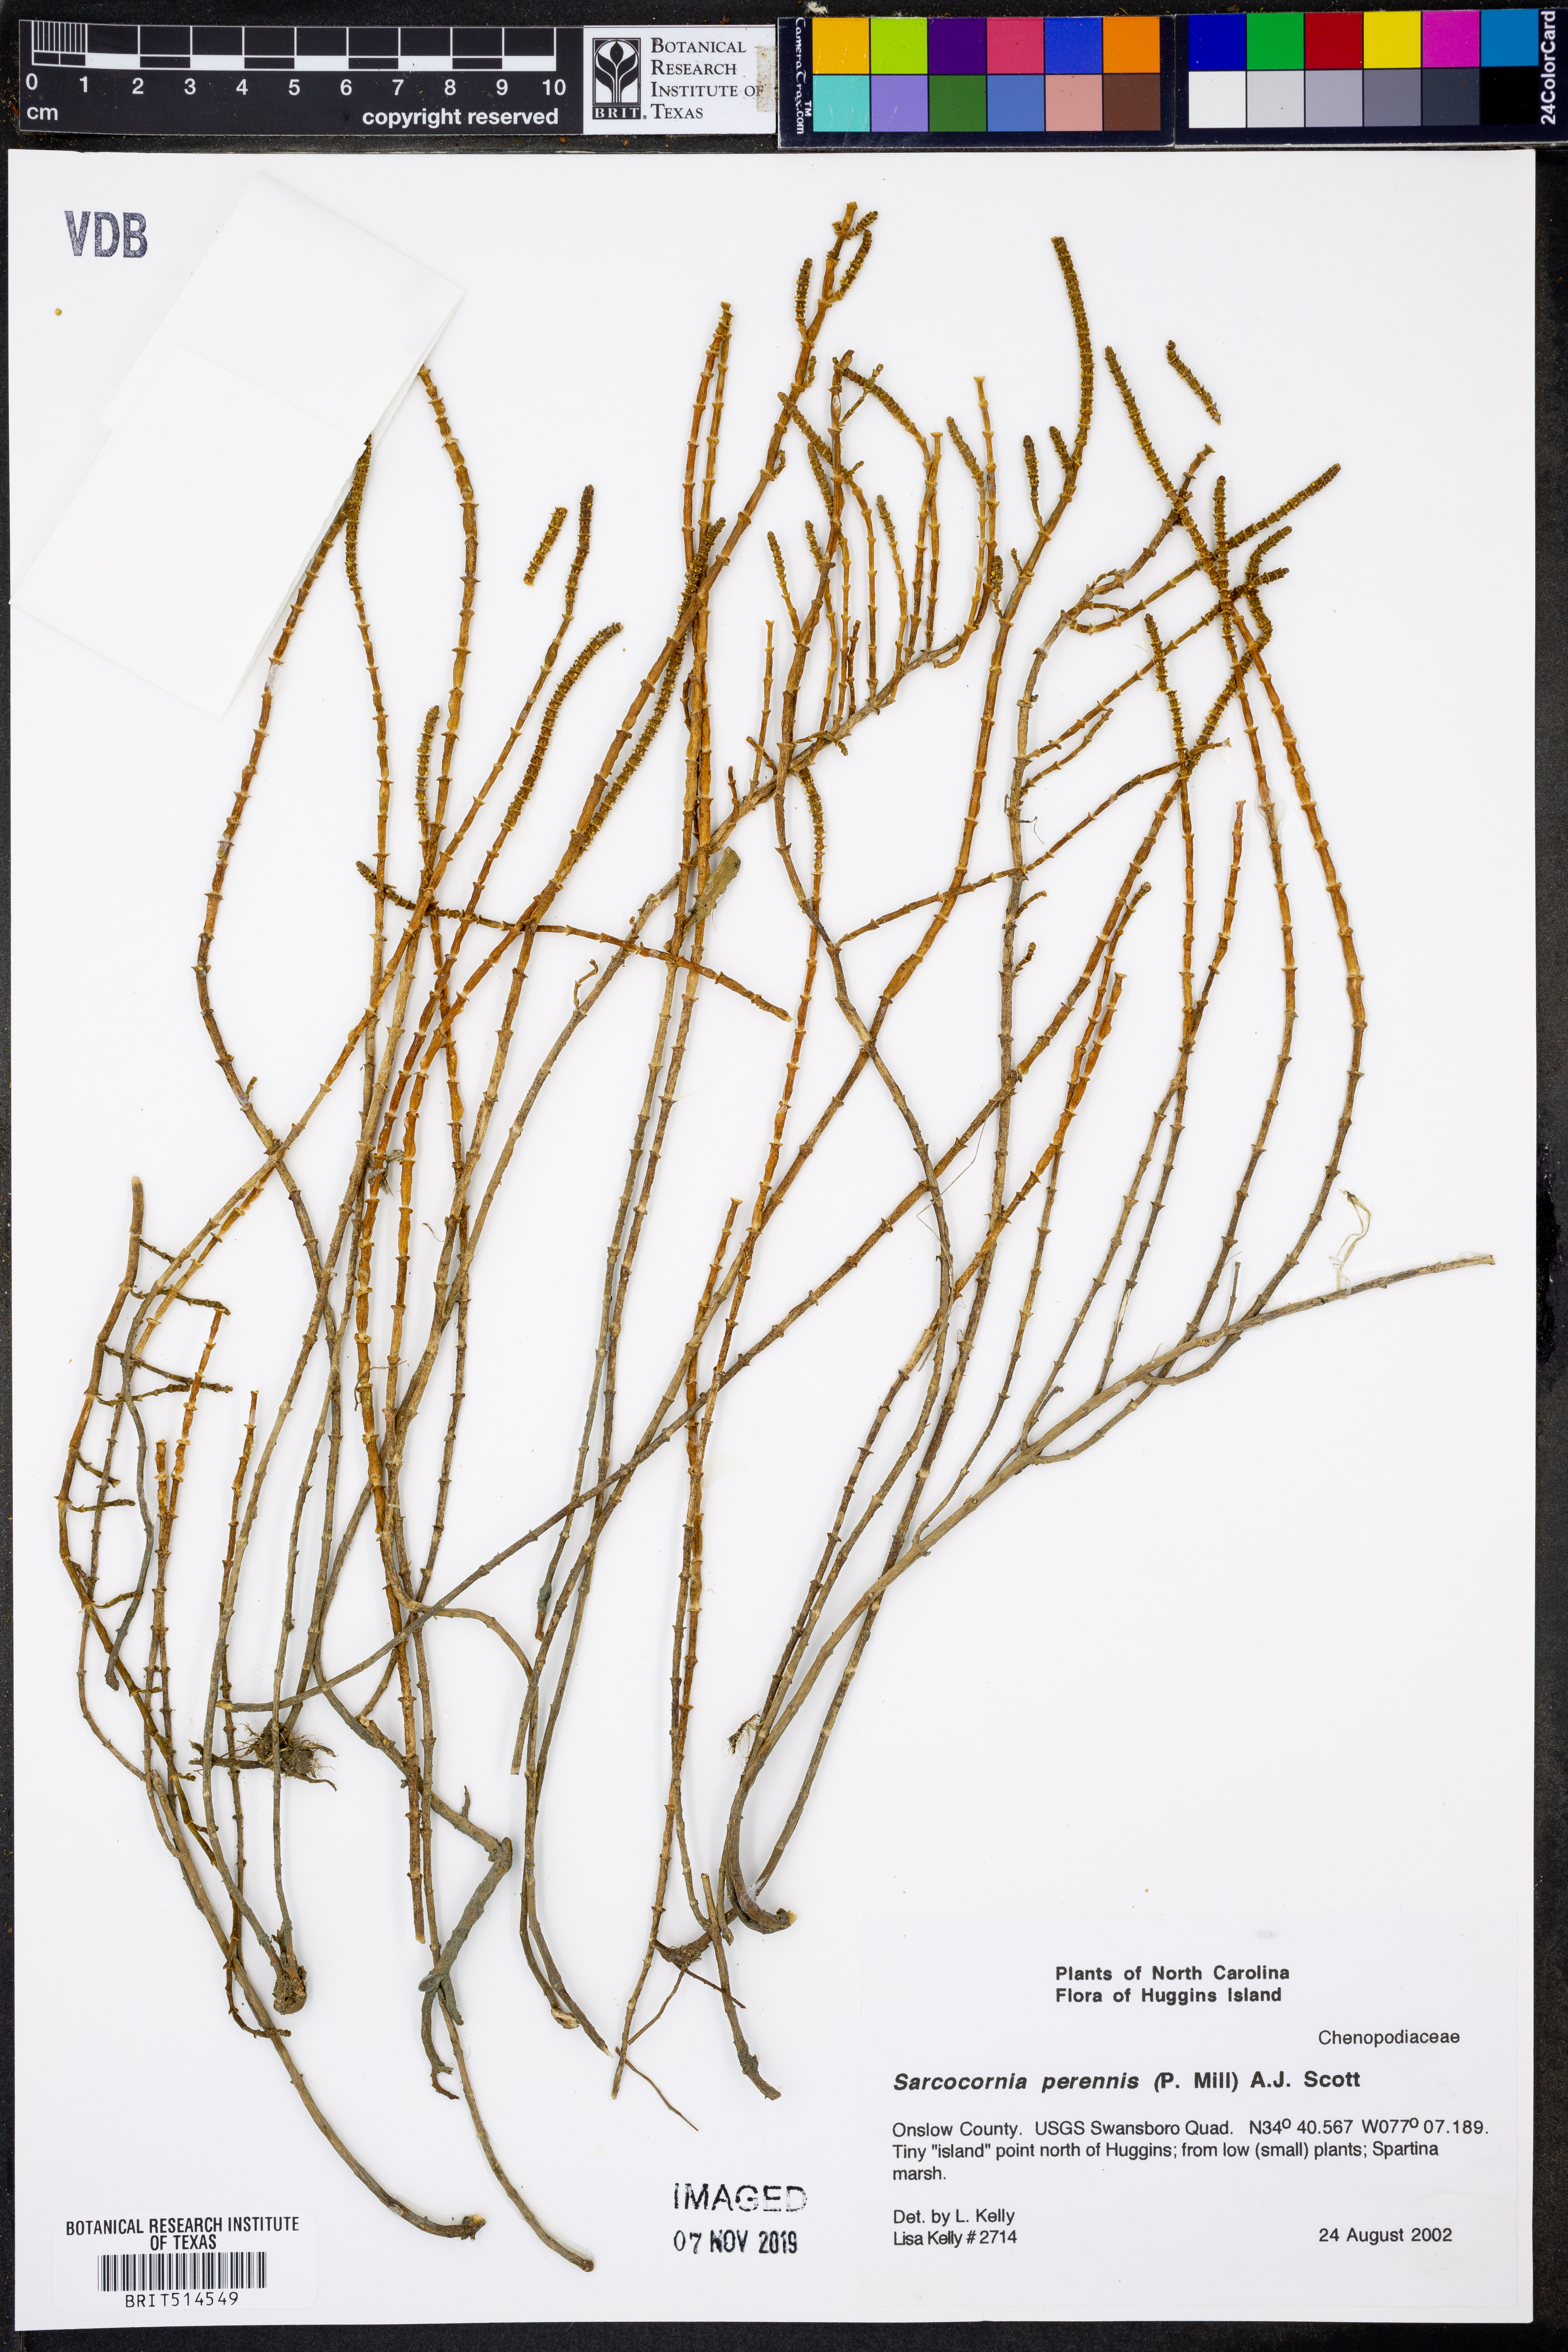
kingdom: Plantae
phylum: Tracheophyta
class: Magnoliopsida
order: Caryophyllales
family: Amaranthaceae
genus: Salicornia
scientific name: Salicornia perennis
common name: Chicken claws
